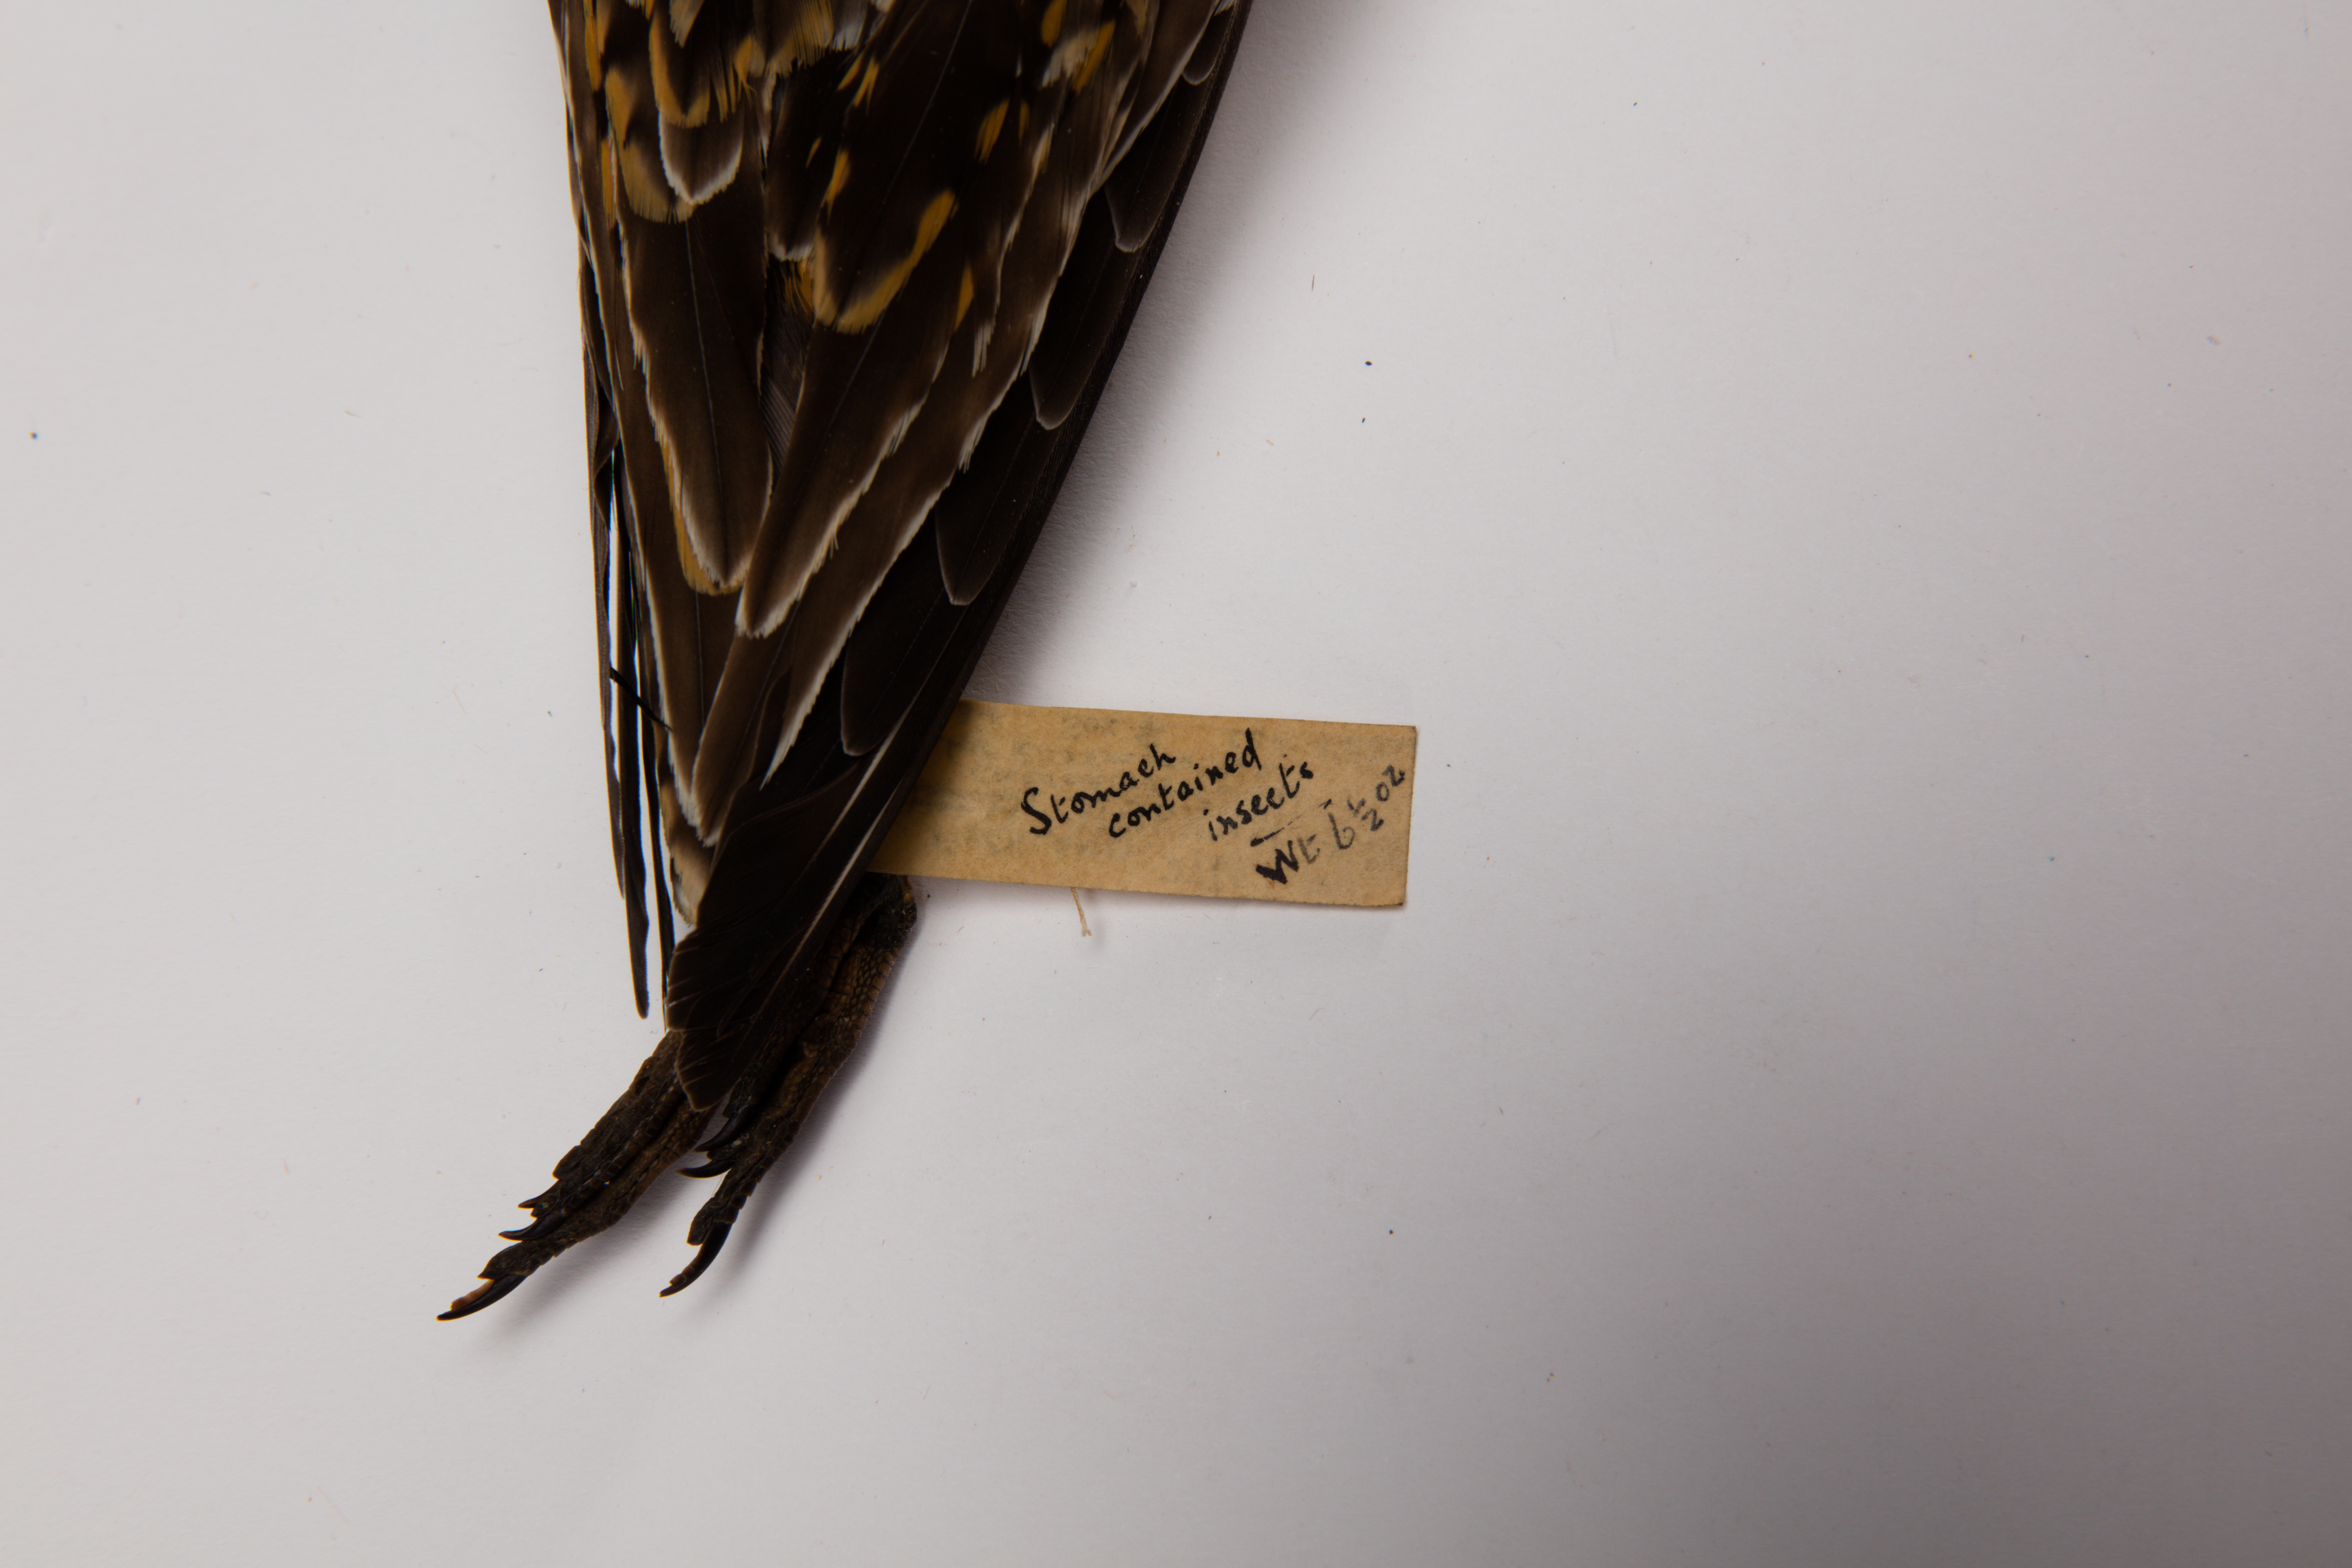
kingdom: Animalia
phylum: Chordata
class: Aves
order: Charadriiformes
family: Charadriidae
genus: Pluvialis
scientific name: Pluvialis fulva
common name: Pacific golden plover
